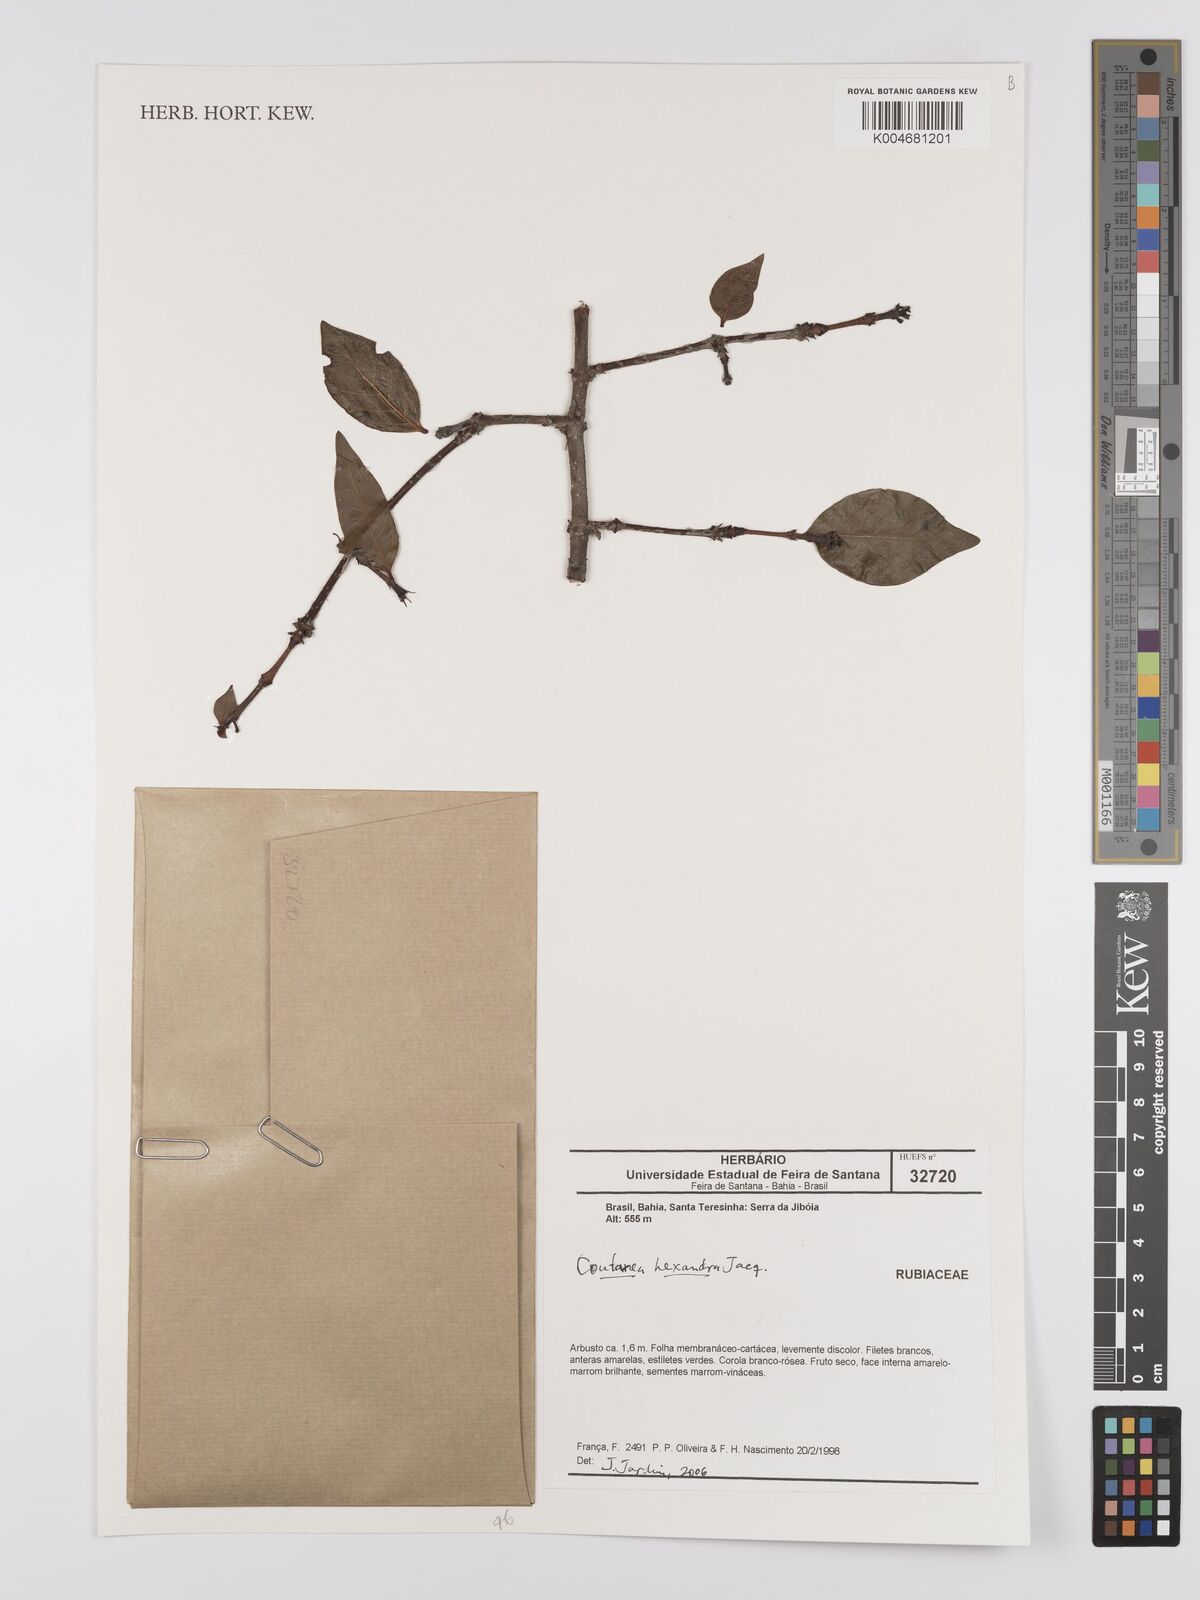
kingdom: Plantae
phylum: Tracheophyta
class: Magnoliopsida
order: Gentianales
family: Rubiaceae
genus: Coutarea
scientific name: Coutarea hexandra
